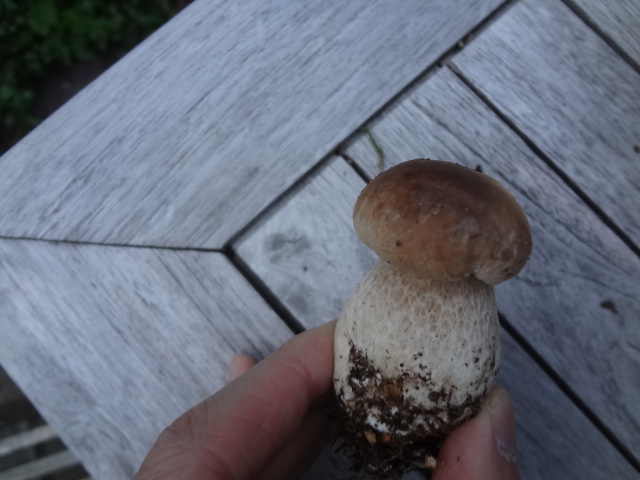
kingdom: Fungi
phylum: Basidiomycota
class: Agaricomycetes
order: Boletales
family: Boletaceae
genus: Boletus
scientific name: Boletus edulis
